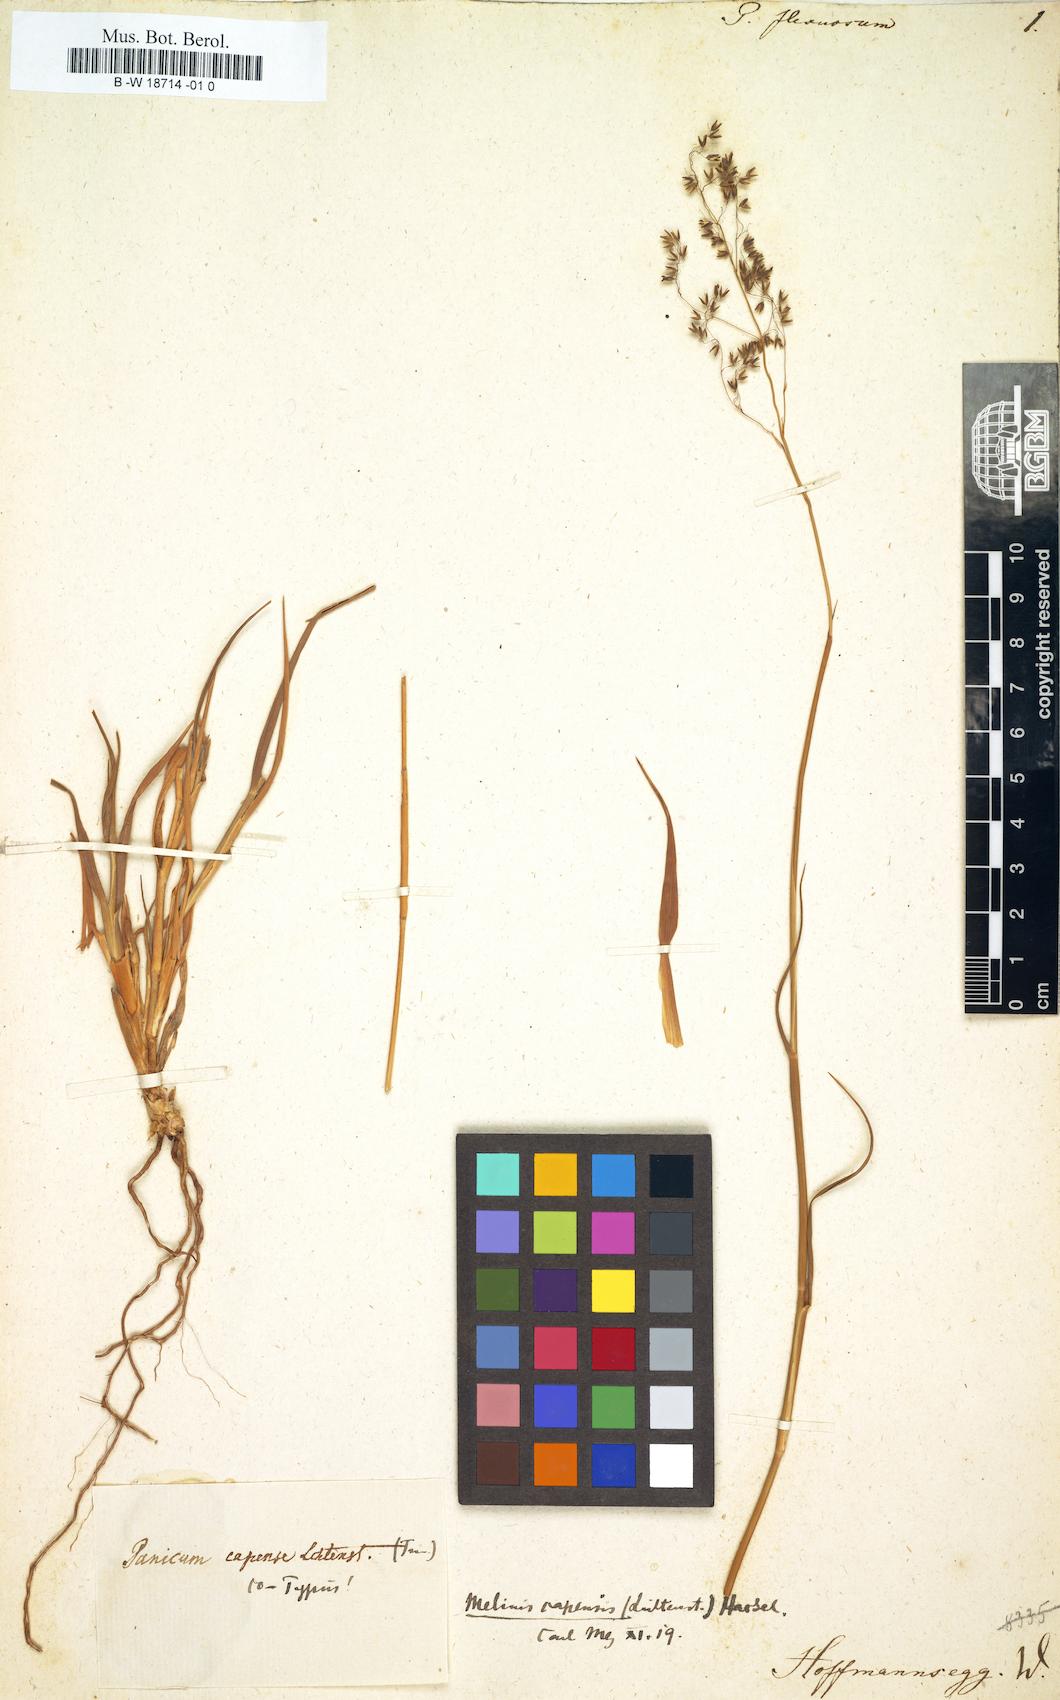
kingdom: Plantae
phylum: Tracheophyta
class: Liliopsida
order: Poales
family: Poaceae
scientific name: Poaceae
